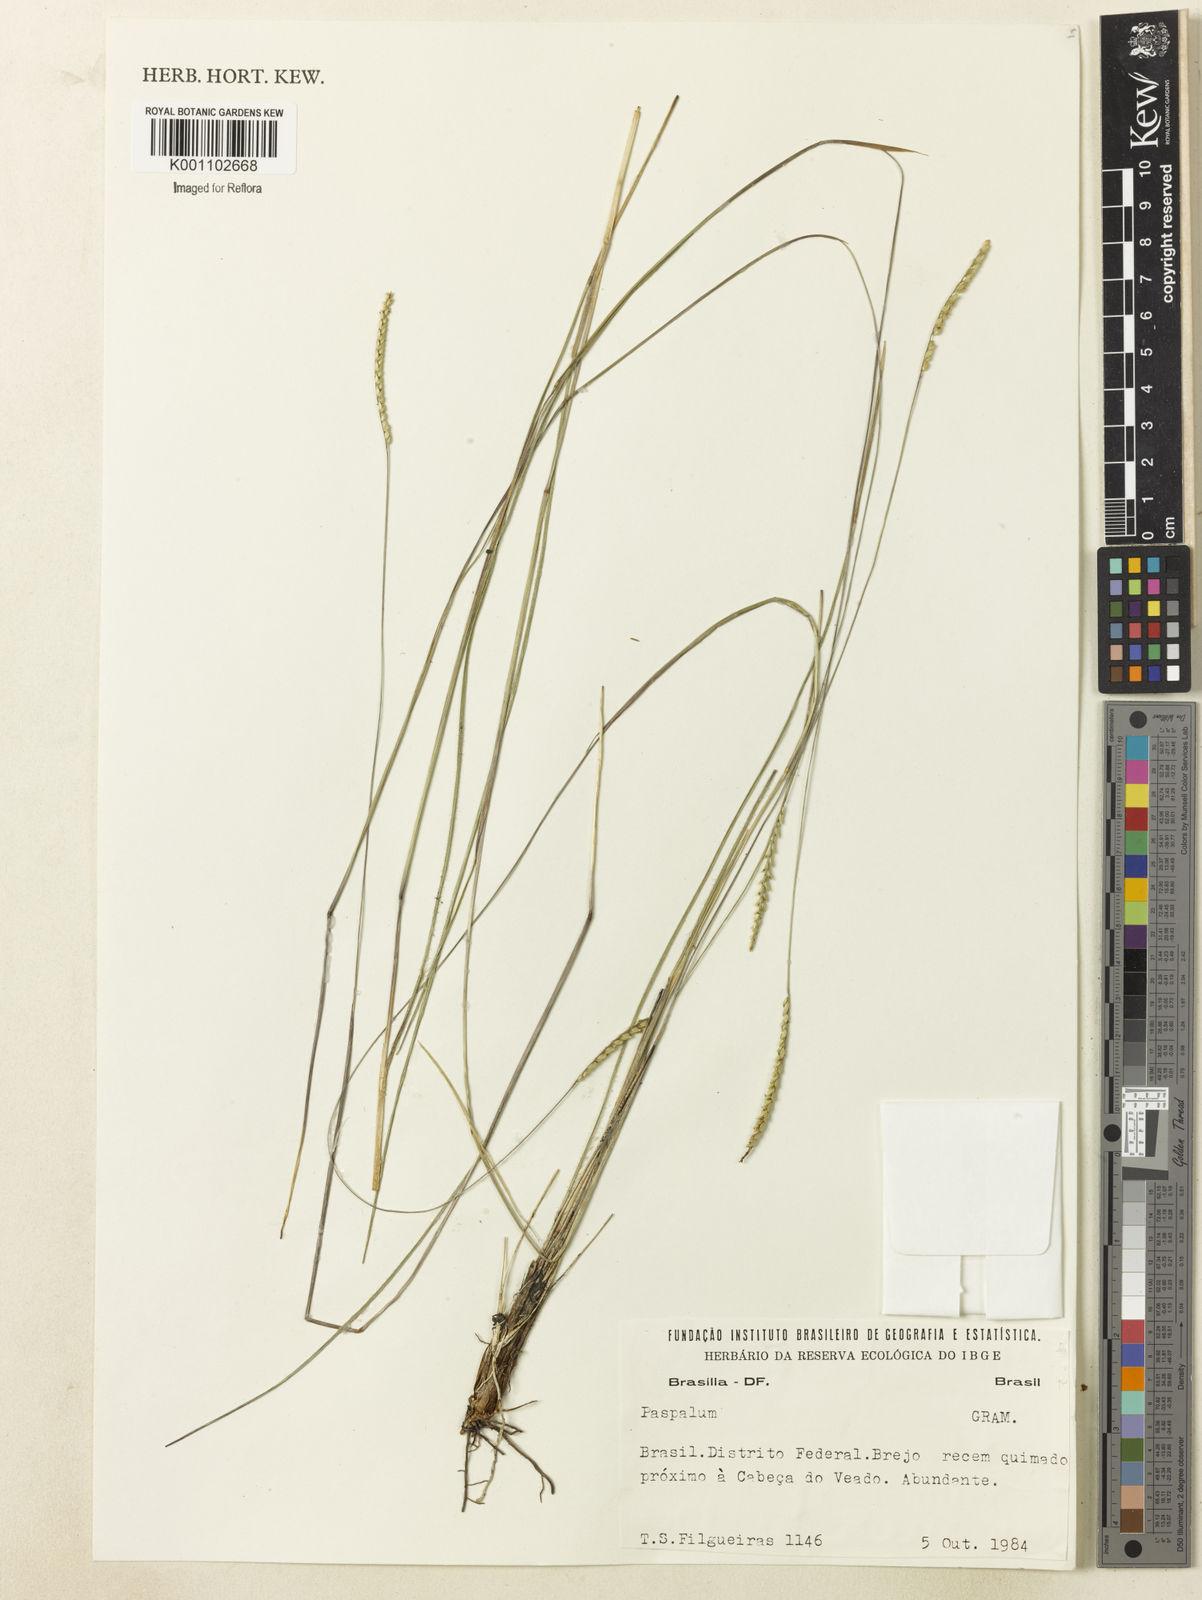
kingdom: Plantae
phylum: Tracheophyta
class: Liliopsida
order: Poales
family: Poaceae
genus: Paspalum
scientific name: Paspalum
